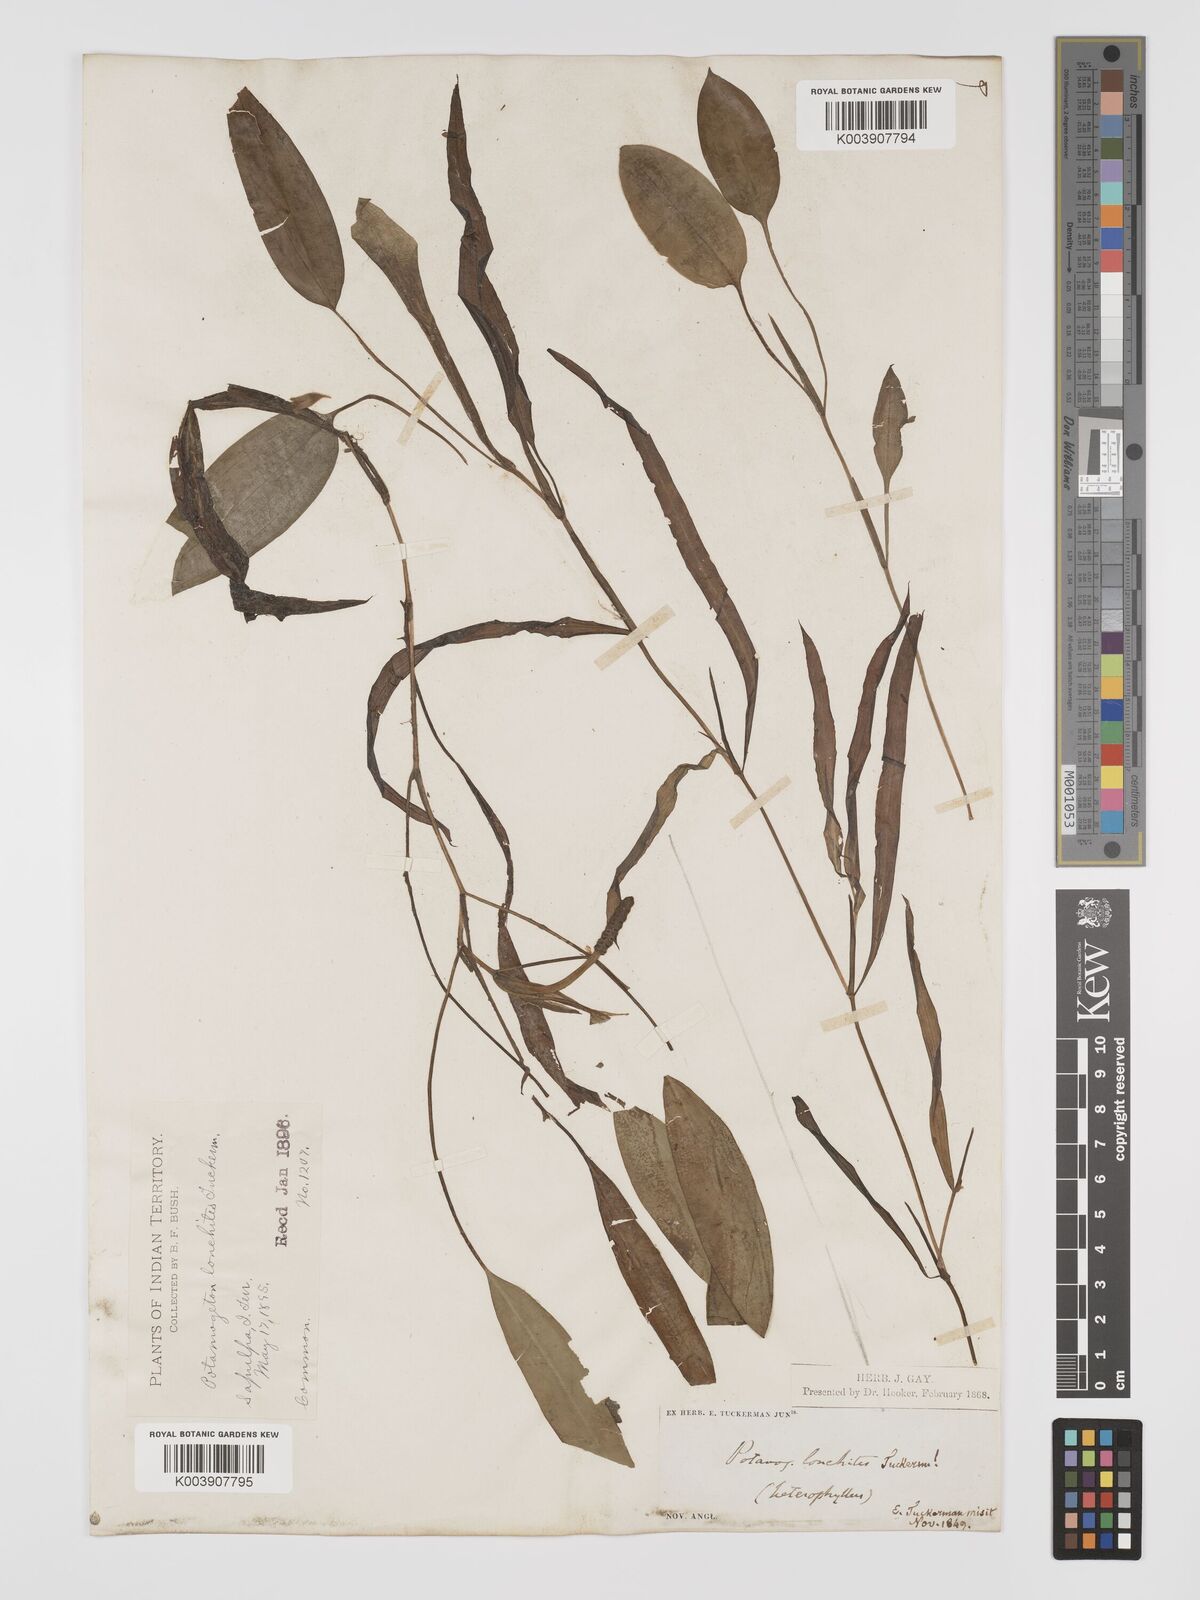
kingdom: Plantae
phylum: Tracheophyta
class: Liliopsida
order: Alismatales
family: Potamogetonaceae
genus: Potamogeton
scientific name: Potamogeton gramineus
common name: Various-leaved pondweed
